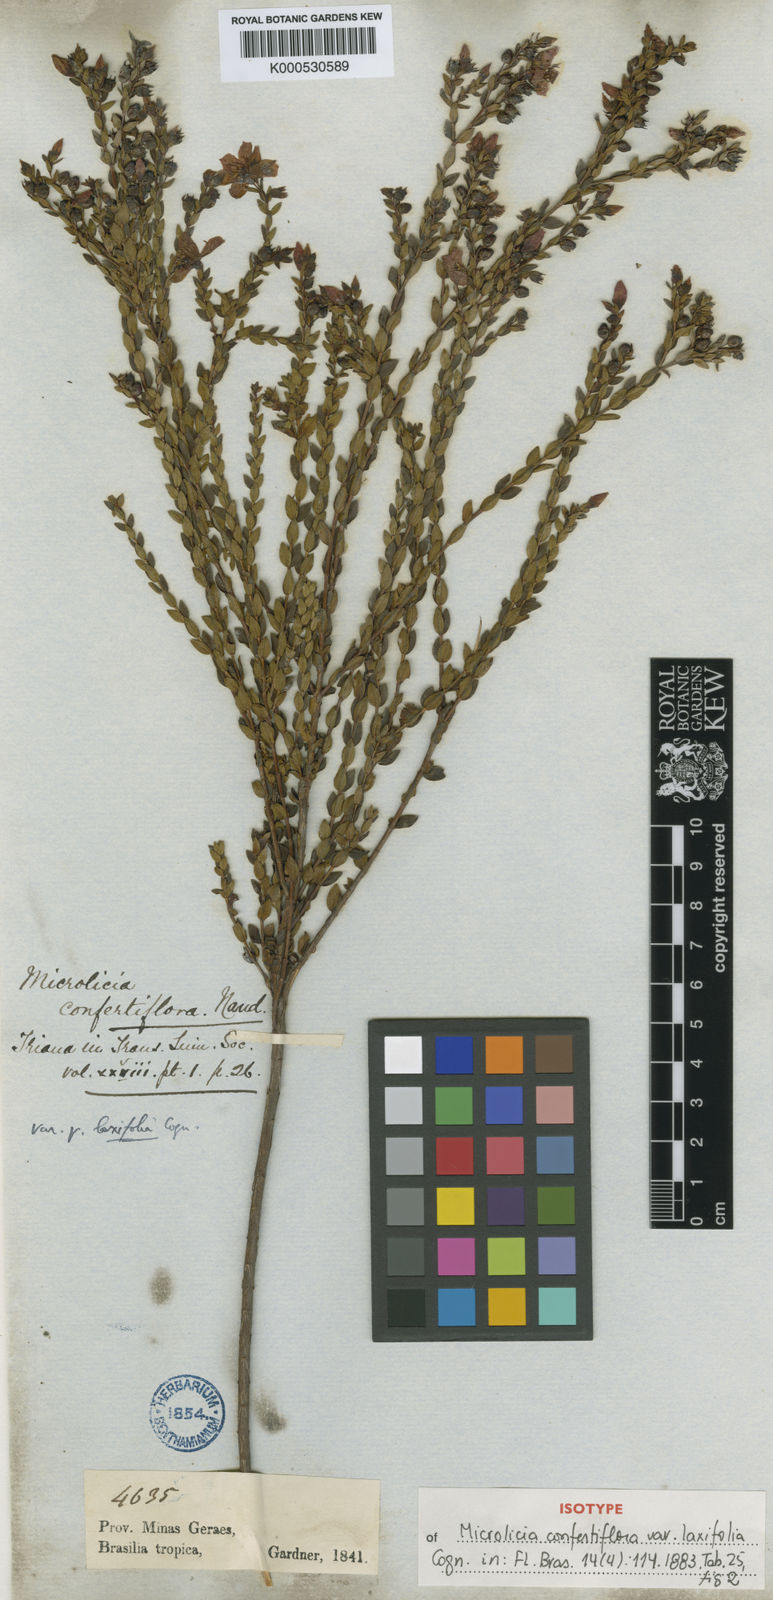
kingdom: Plantae
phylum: Tracheophyta
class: Magnoliopsida
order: Myrtales
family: Melastomataceae
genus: Microlicia
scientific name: Microlicia confertiflora
